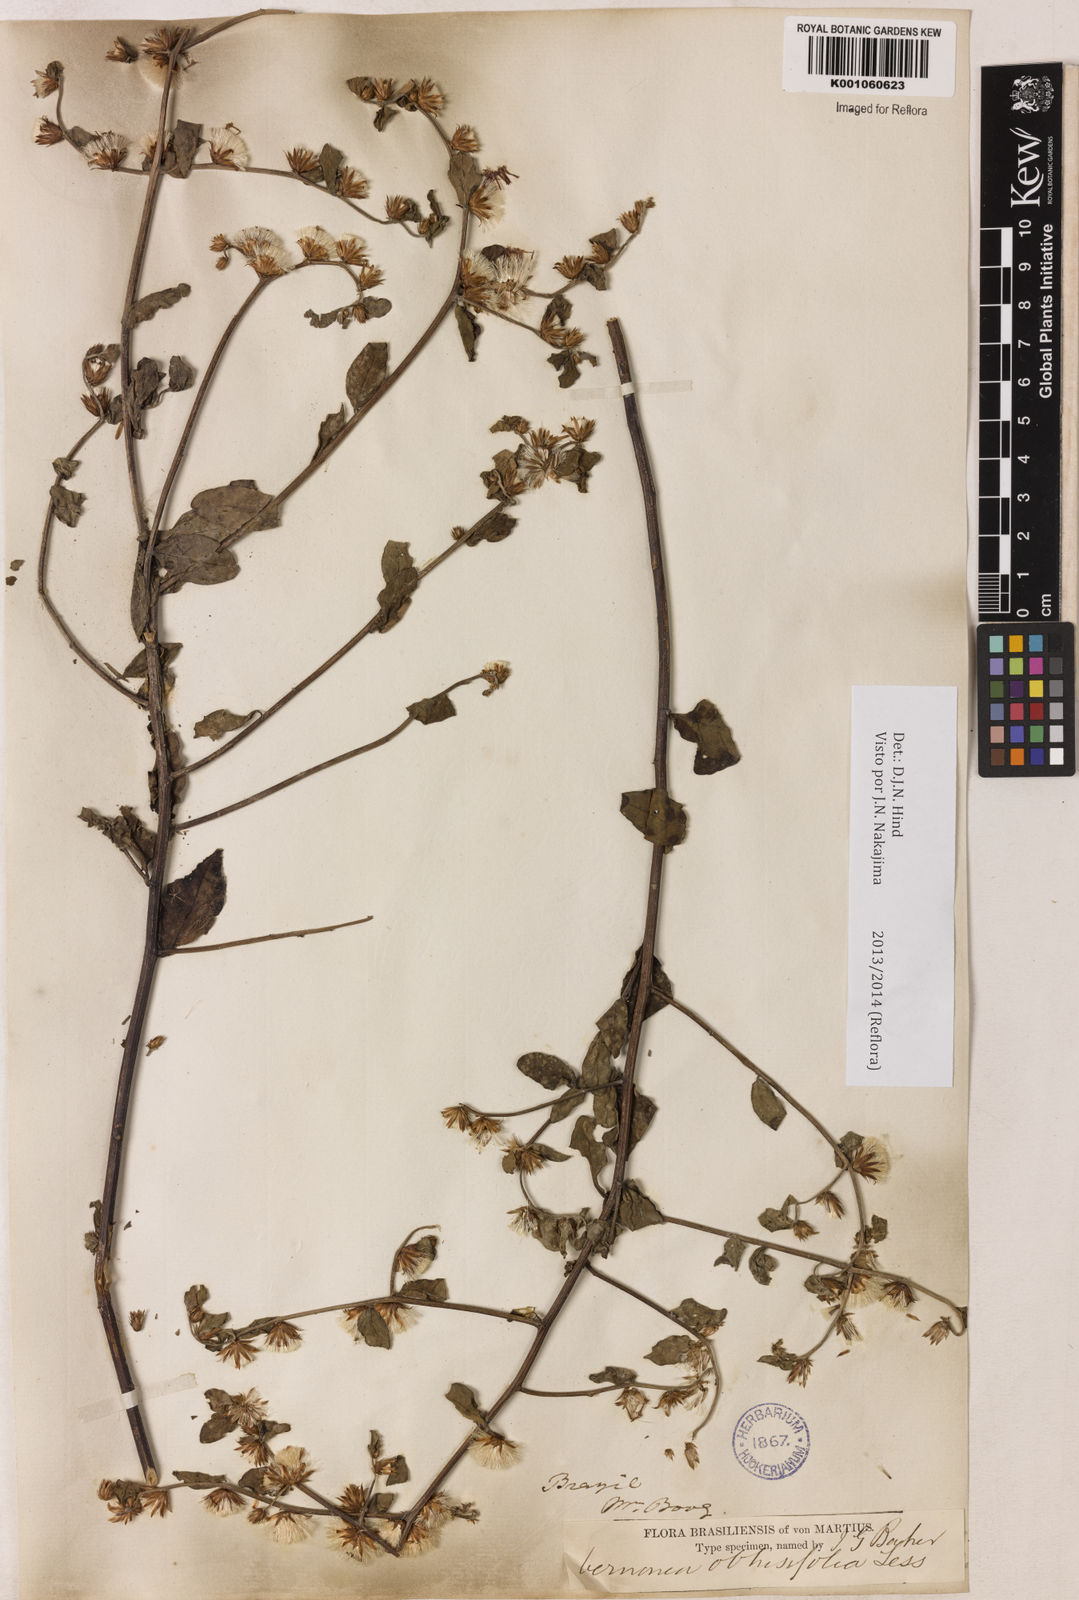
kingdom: Plantae
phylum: Tracheophyta
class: Magnoliopsida
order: Asterales
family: Asteraceae
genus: Lepidaploa
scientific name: Lepidaploa obtusifolia
